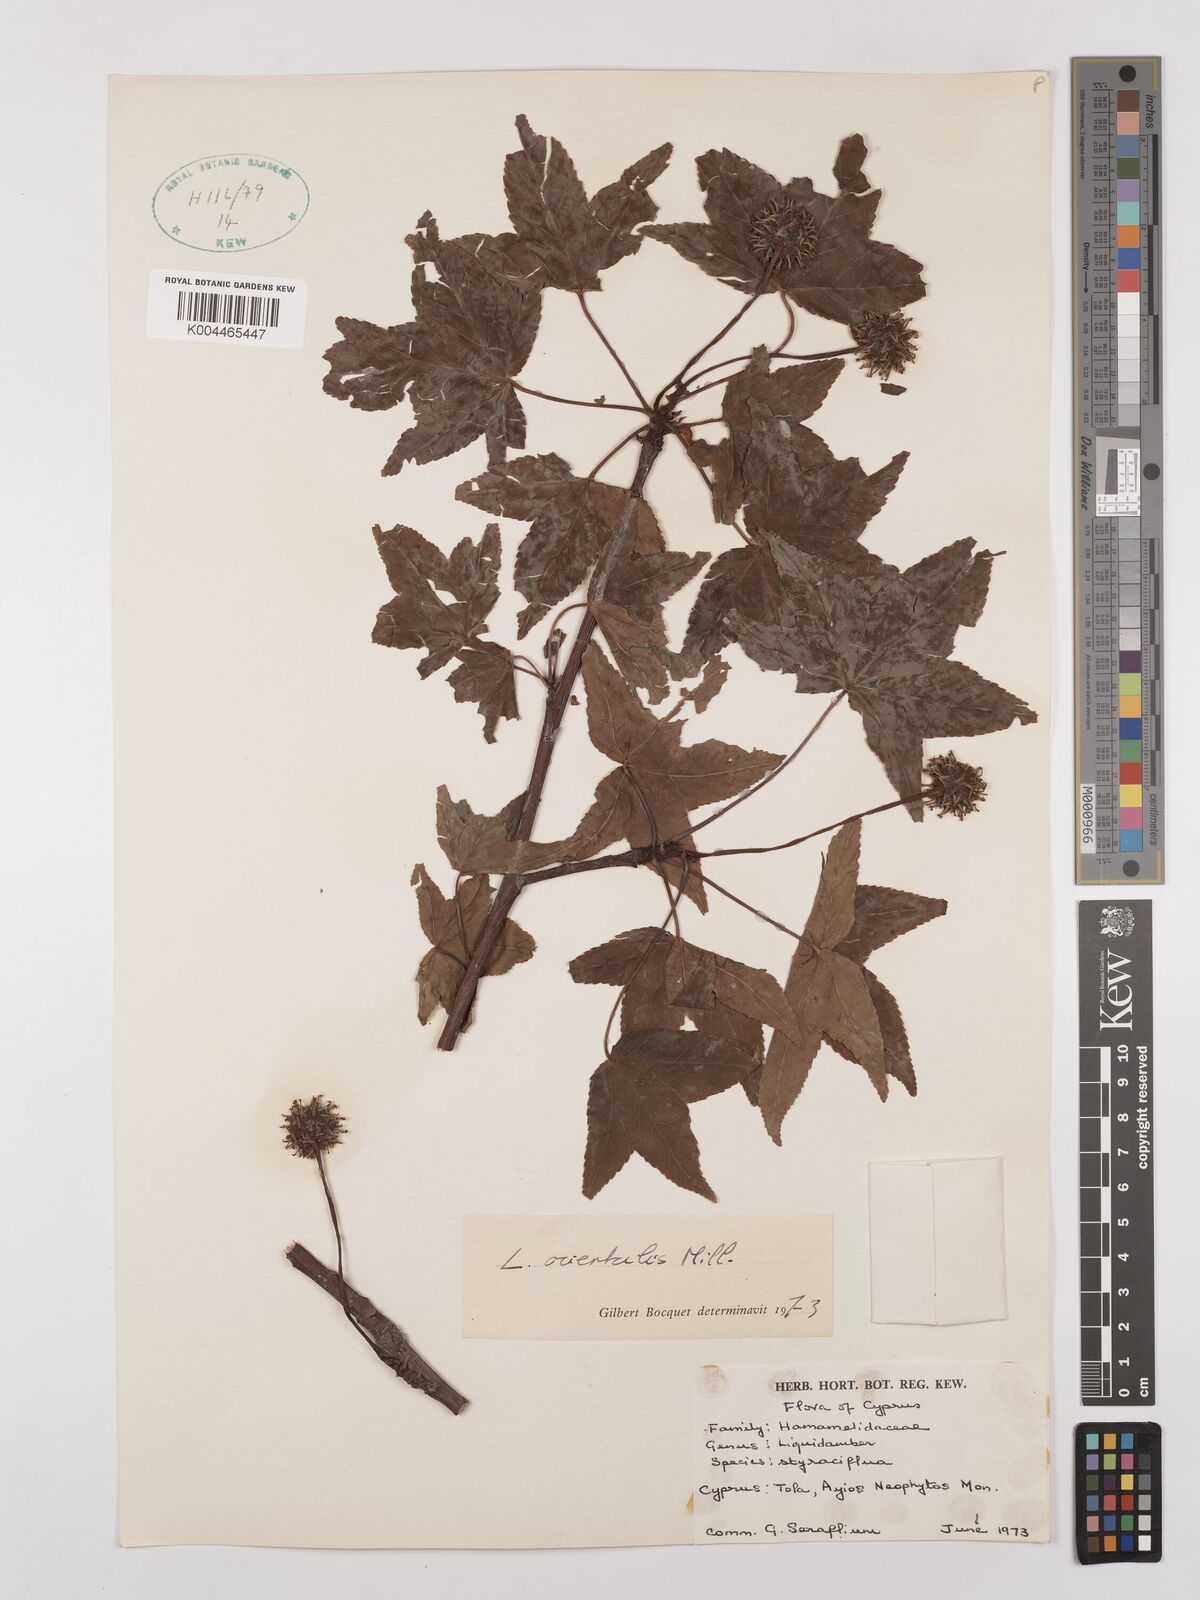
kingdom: Plantae
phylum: Tracheophyta
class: Magnoliopsida
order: Saxifragales
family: Altingiaceae
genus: Liquidambar
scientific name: Liquidambar styraciflua
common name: Sweet gum
